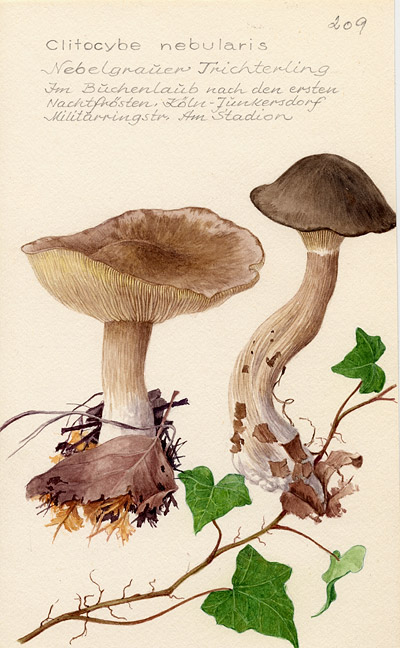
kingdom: Fungi
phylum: Basidiomycota
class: Agaricomycetes
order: Agaricales
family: Tricholomataceae
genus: Clitocybe
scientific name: Clitocybe nebularis
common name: Clouded agaric
